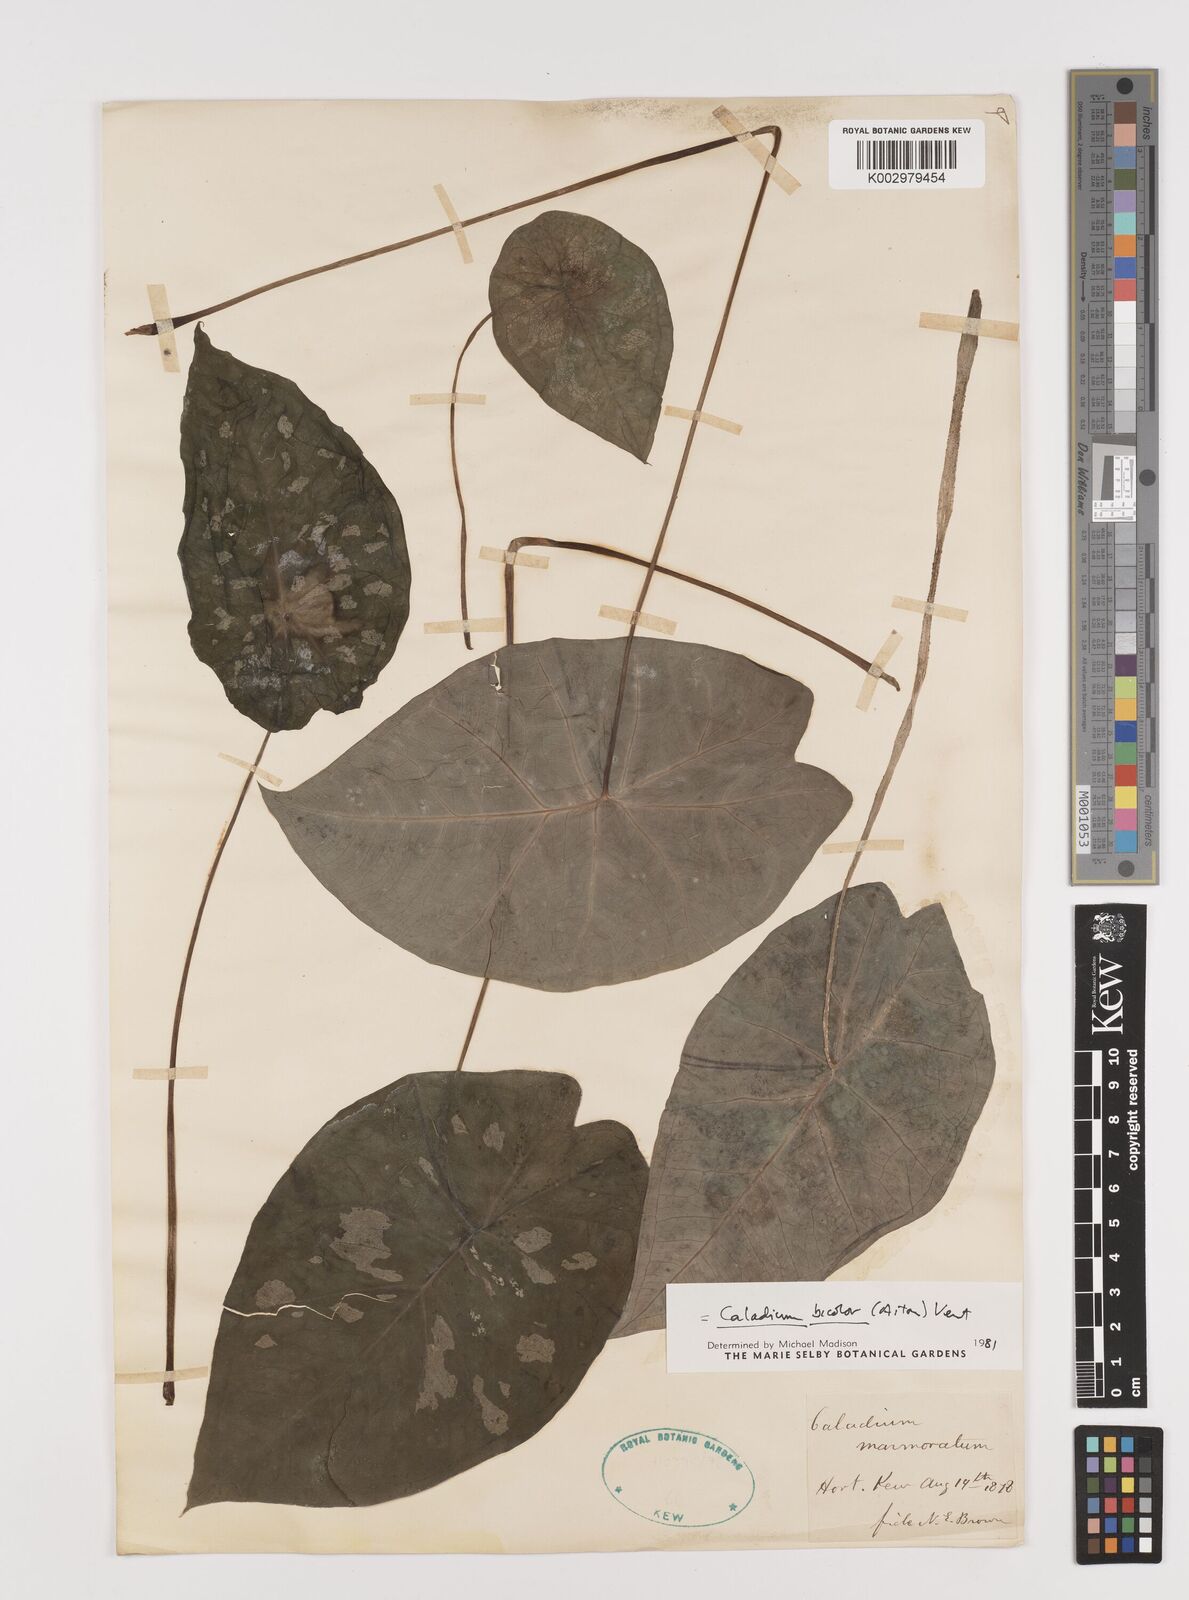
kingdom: Plantae
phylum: Tracheophyta
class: Liliopsida
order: Alismatales
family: Araceae
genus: Caladium
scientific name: Caladium bicolor
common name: Artist's pallet
